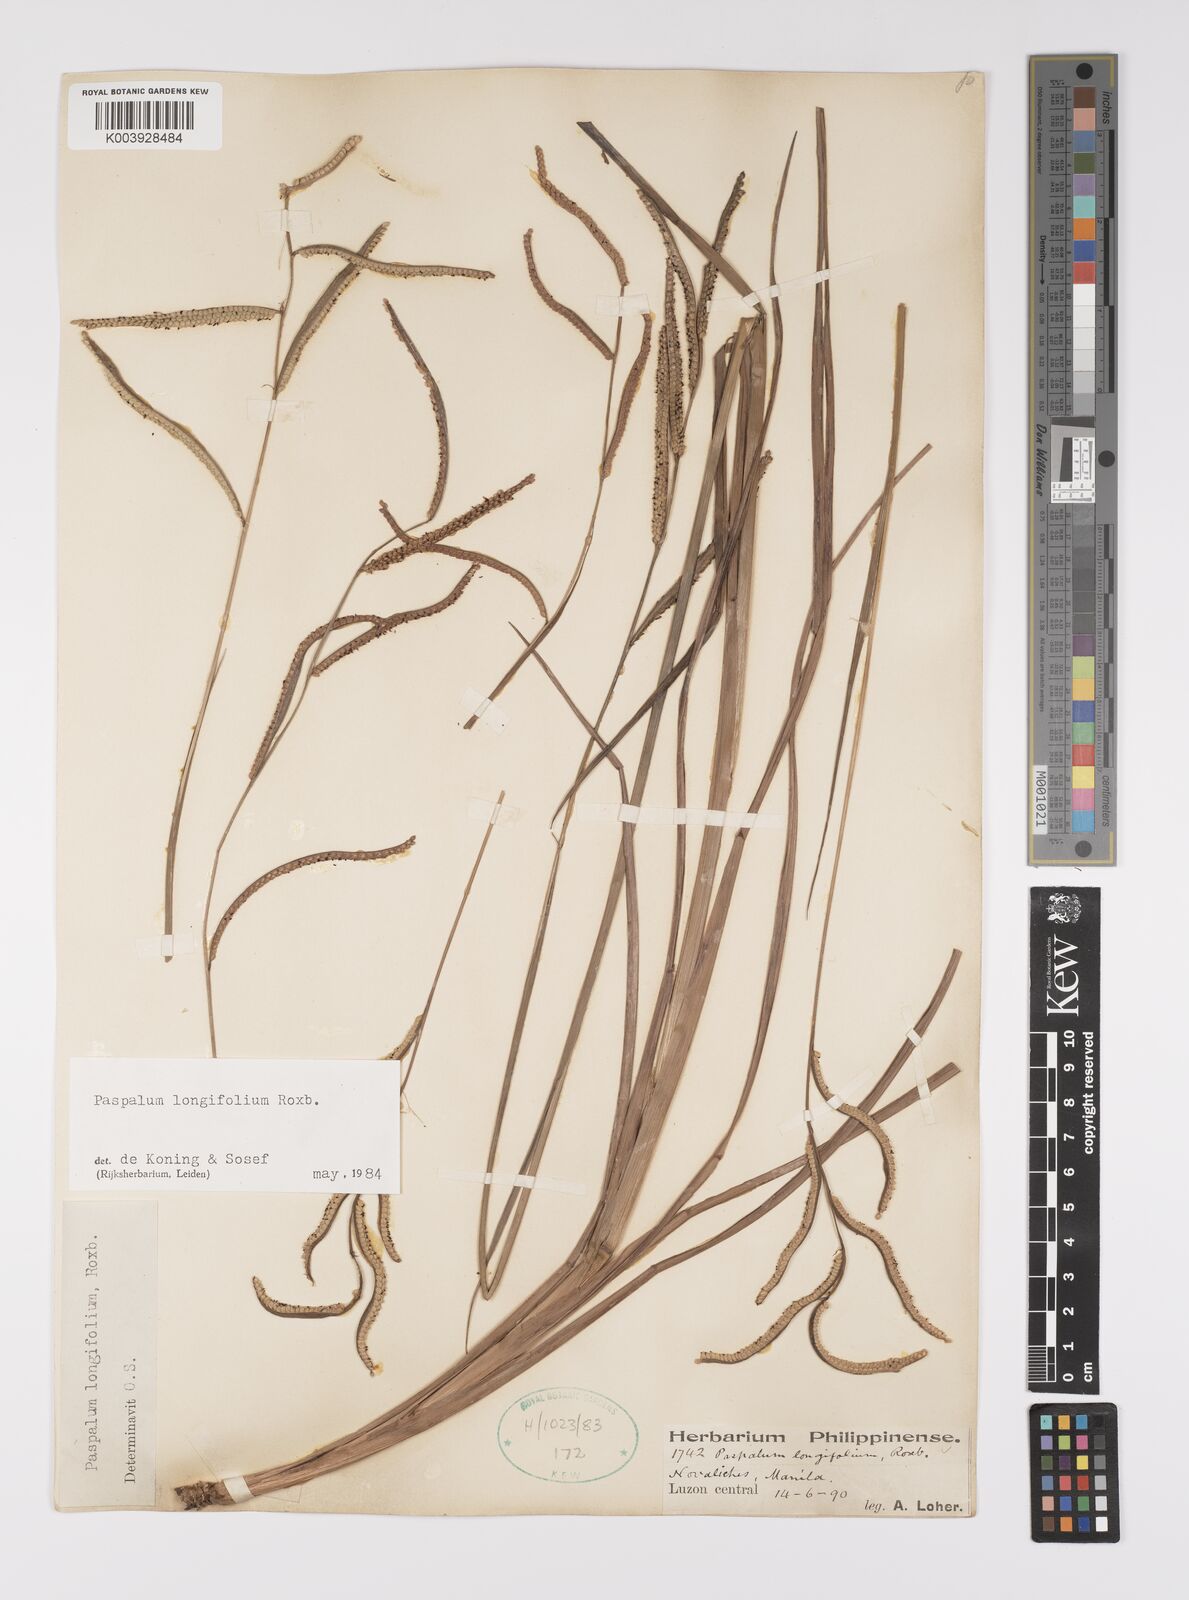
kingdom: Plantae
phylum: Tracheophyta
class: Liliopsida
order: Poales
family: Poaceae
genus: Paspalum
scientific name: Paspalum sumatrense
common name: Long-leaved paspalum
